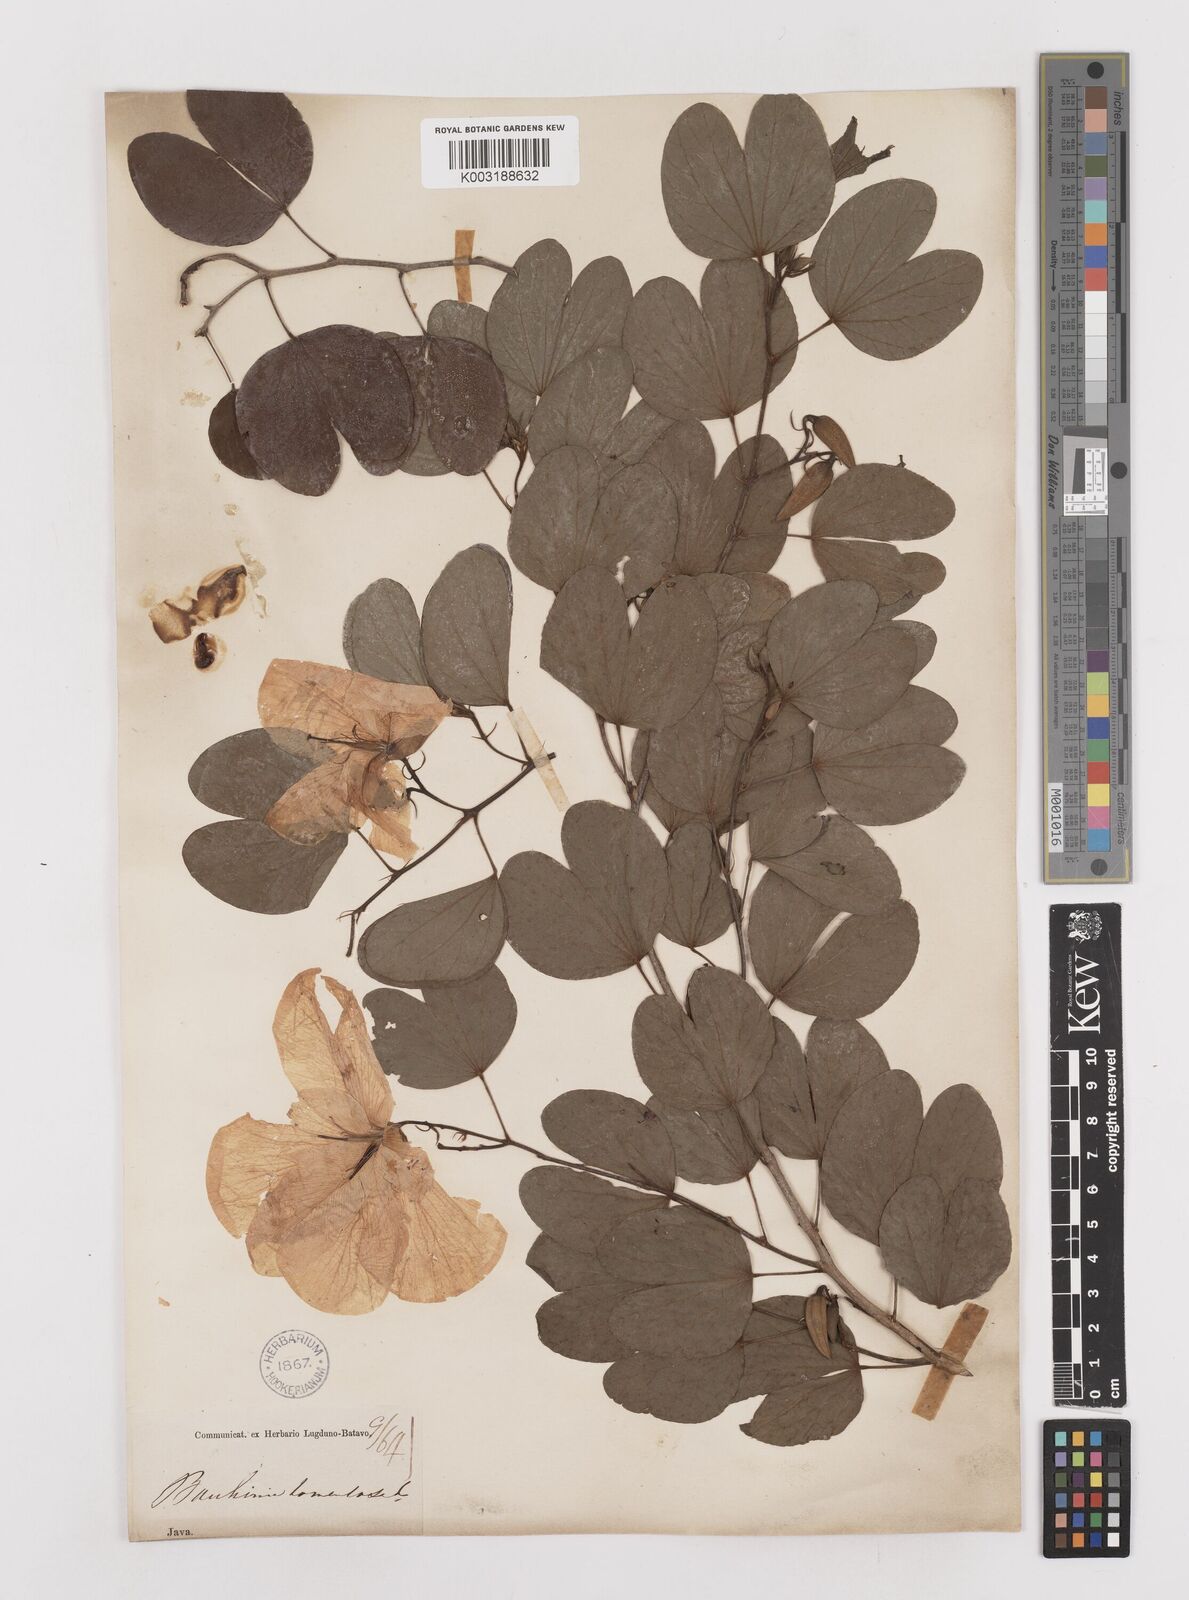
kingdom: Plantae
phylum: Tracheophyta
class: Magnoliopsida
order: Fabales
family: Fabaceae
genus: Bauhinia
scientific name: Bauhinia tomentosa
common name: Bell bauhinia
